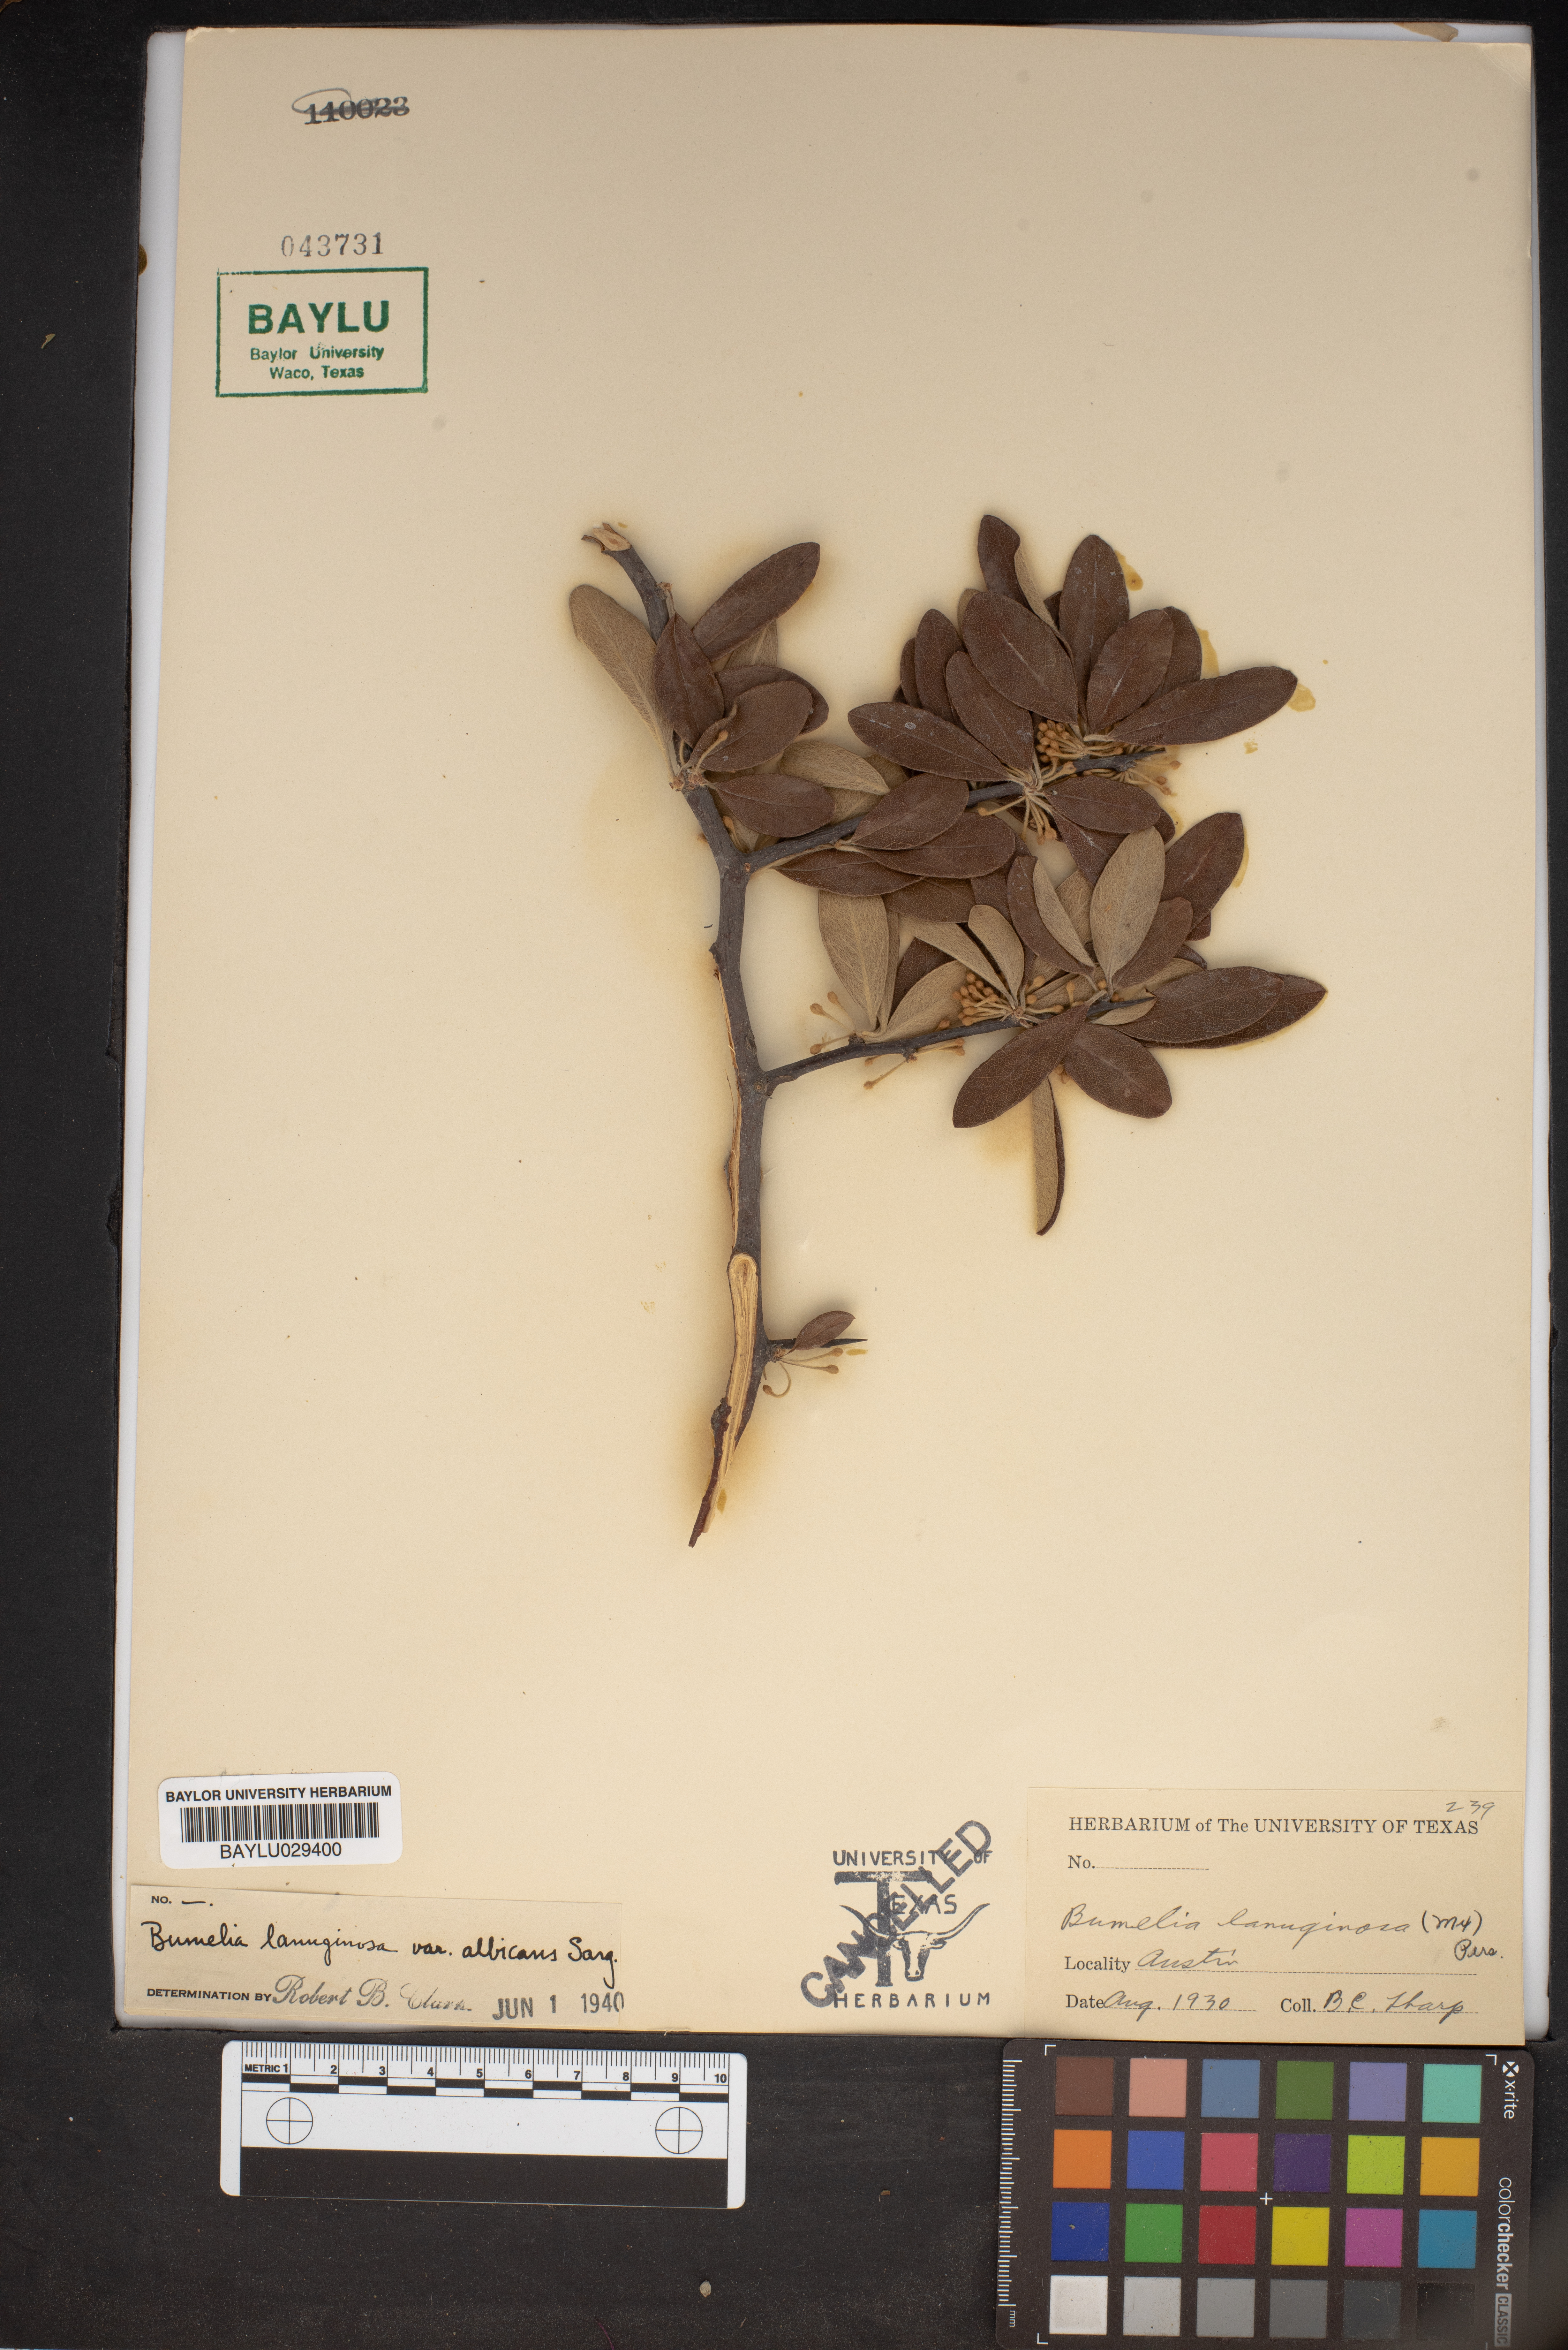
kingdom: Plantae
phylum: Tracheophyta
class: Magnoliopsida
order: Ericales
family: Sapotaceae
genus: Sideroxylon
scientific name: Sideroxylon lanuginosum
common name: Chittamwood
